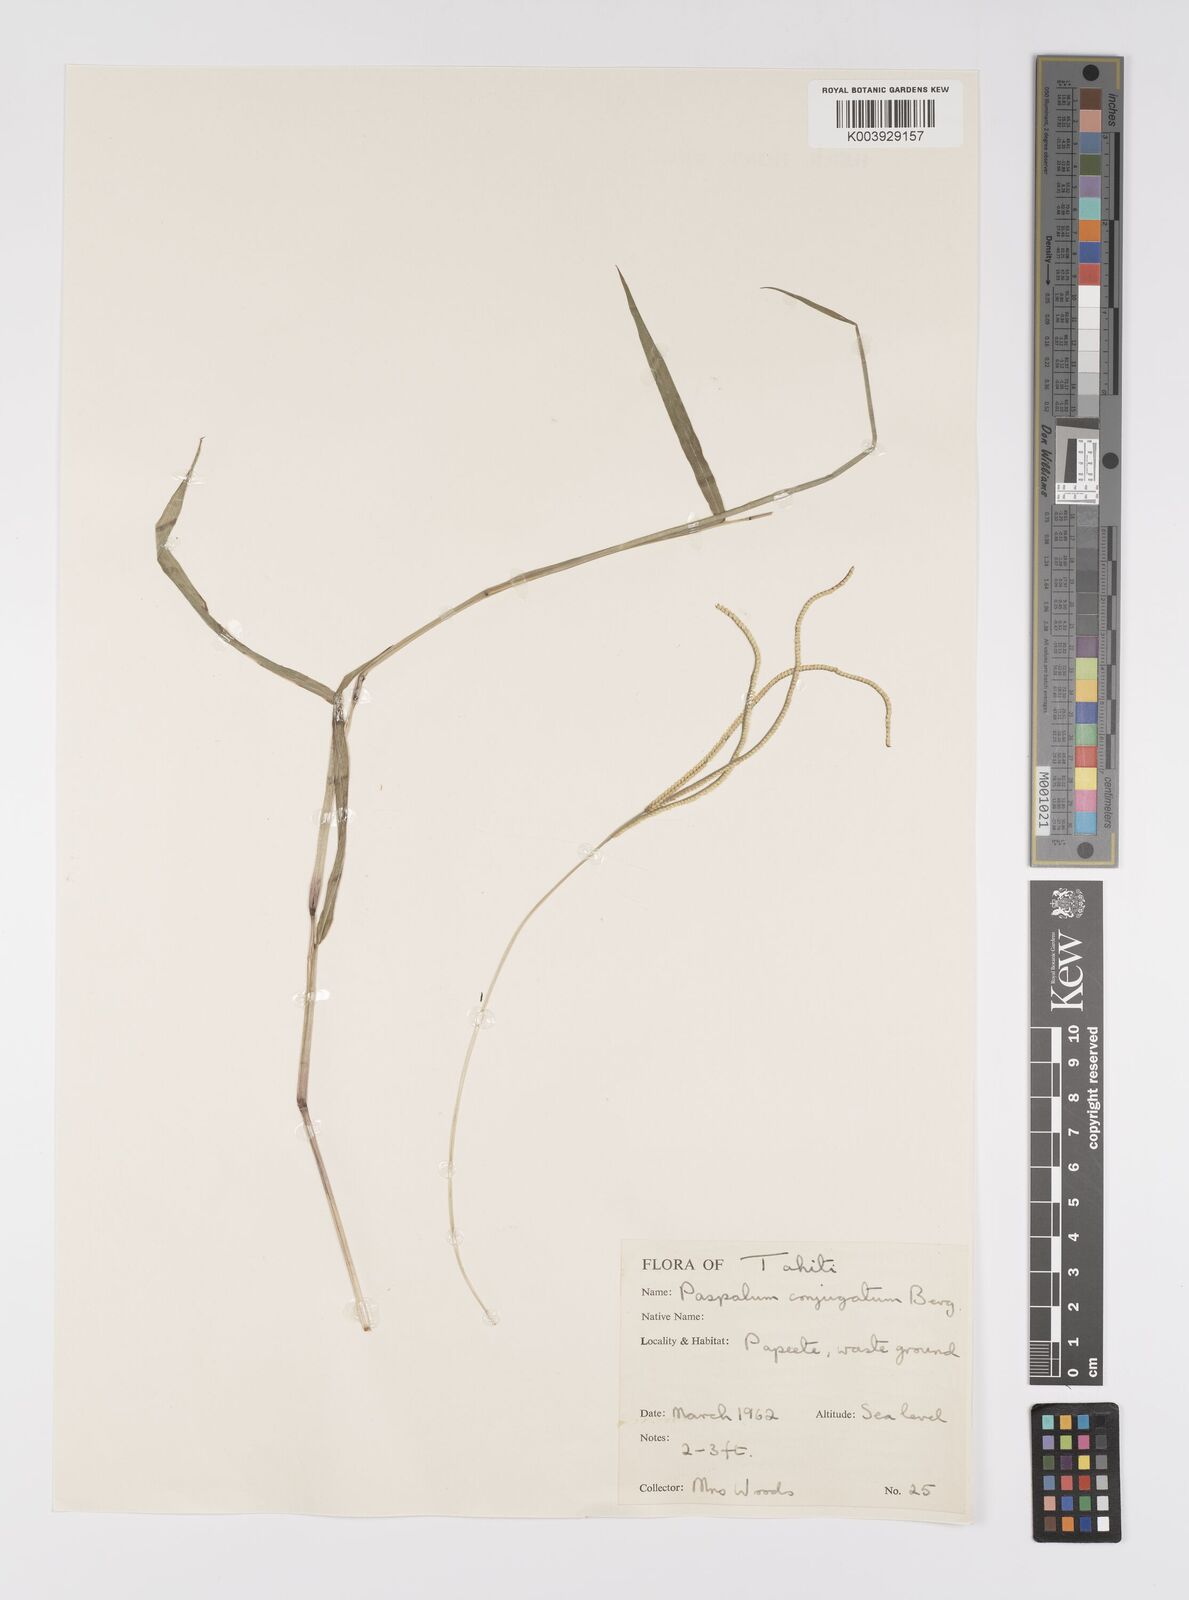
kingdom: Plantae
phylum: Tracheophyta
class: Liliopsida
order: Poales
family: Poaceae
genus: Paspalum
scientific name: Paspalum conjugatum
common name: Hilograss
